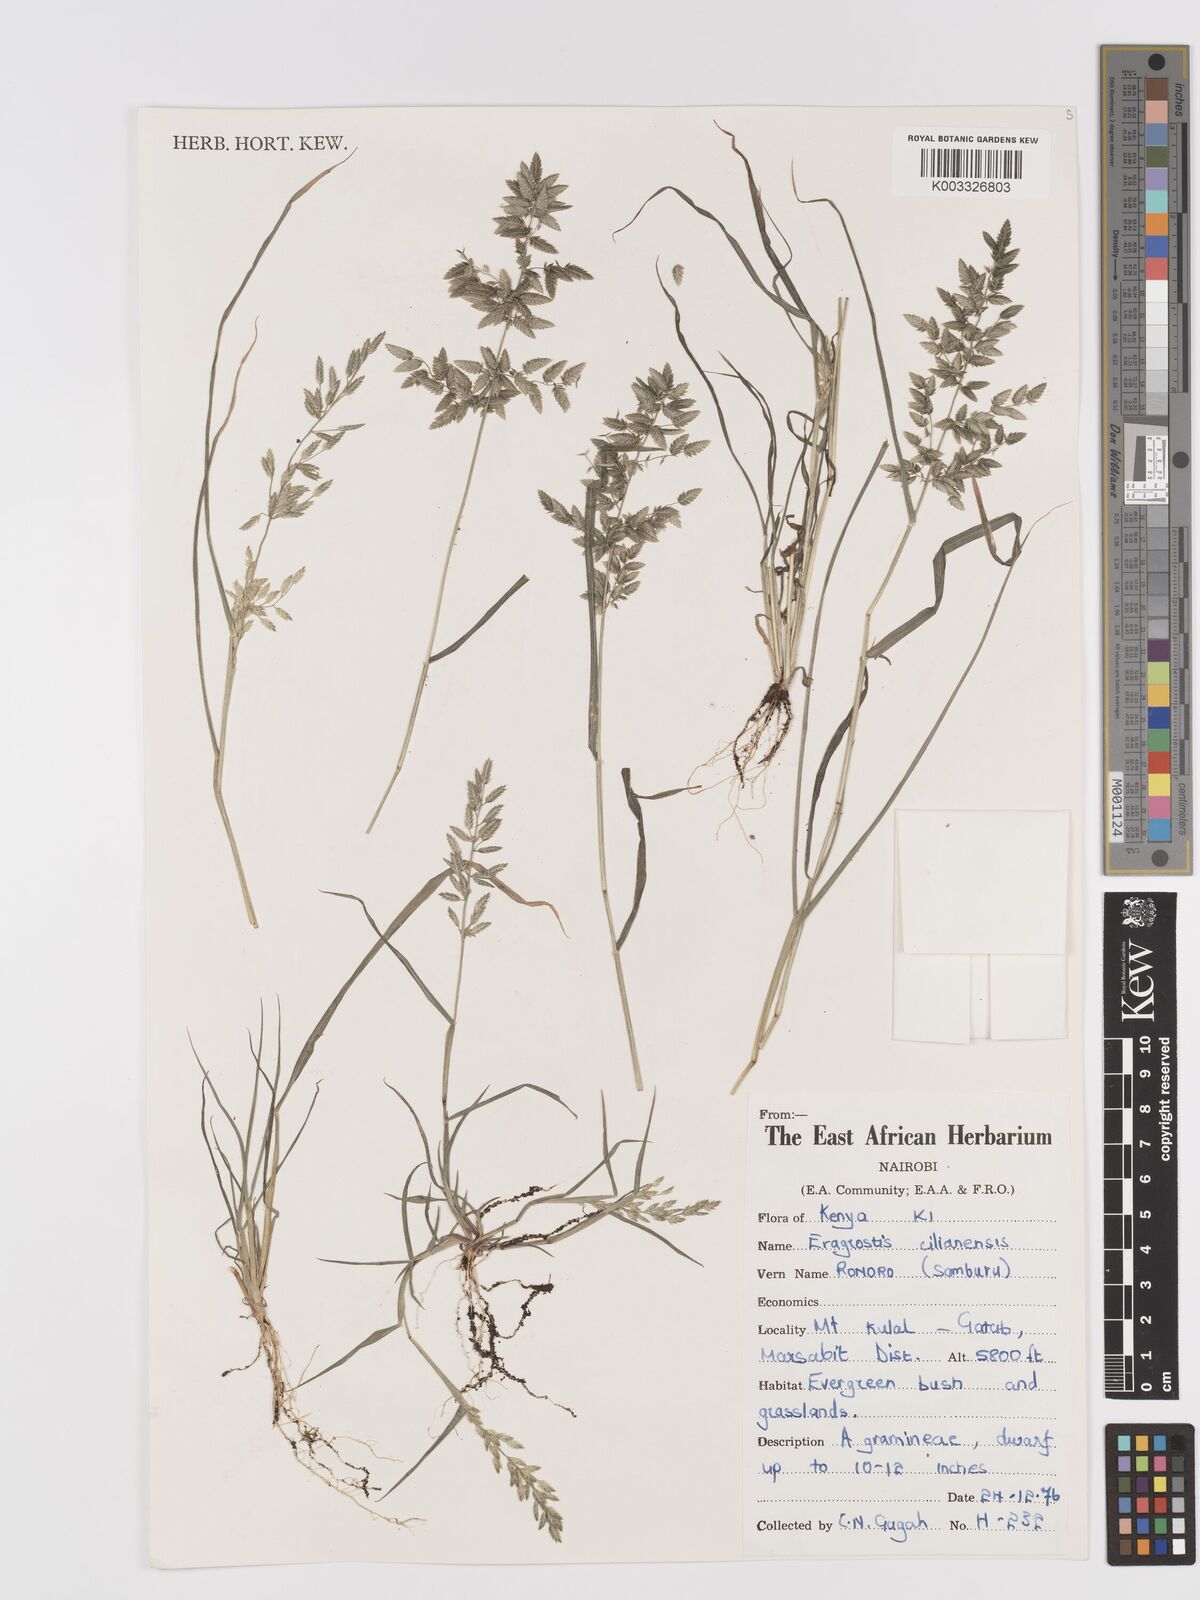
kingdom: Plantae
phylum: Tracheophyta
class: Liliopsida
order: Poales
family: Poaceae
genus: Eragrostis
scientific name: Eragrostis cilianensis
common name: Stinkgrass
